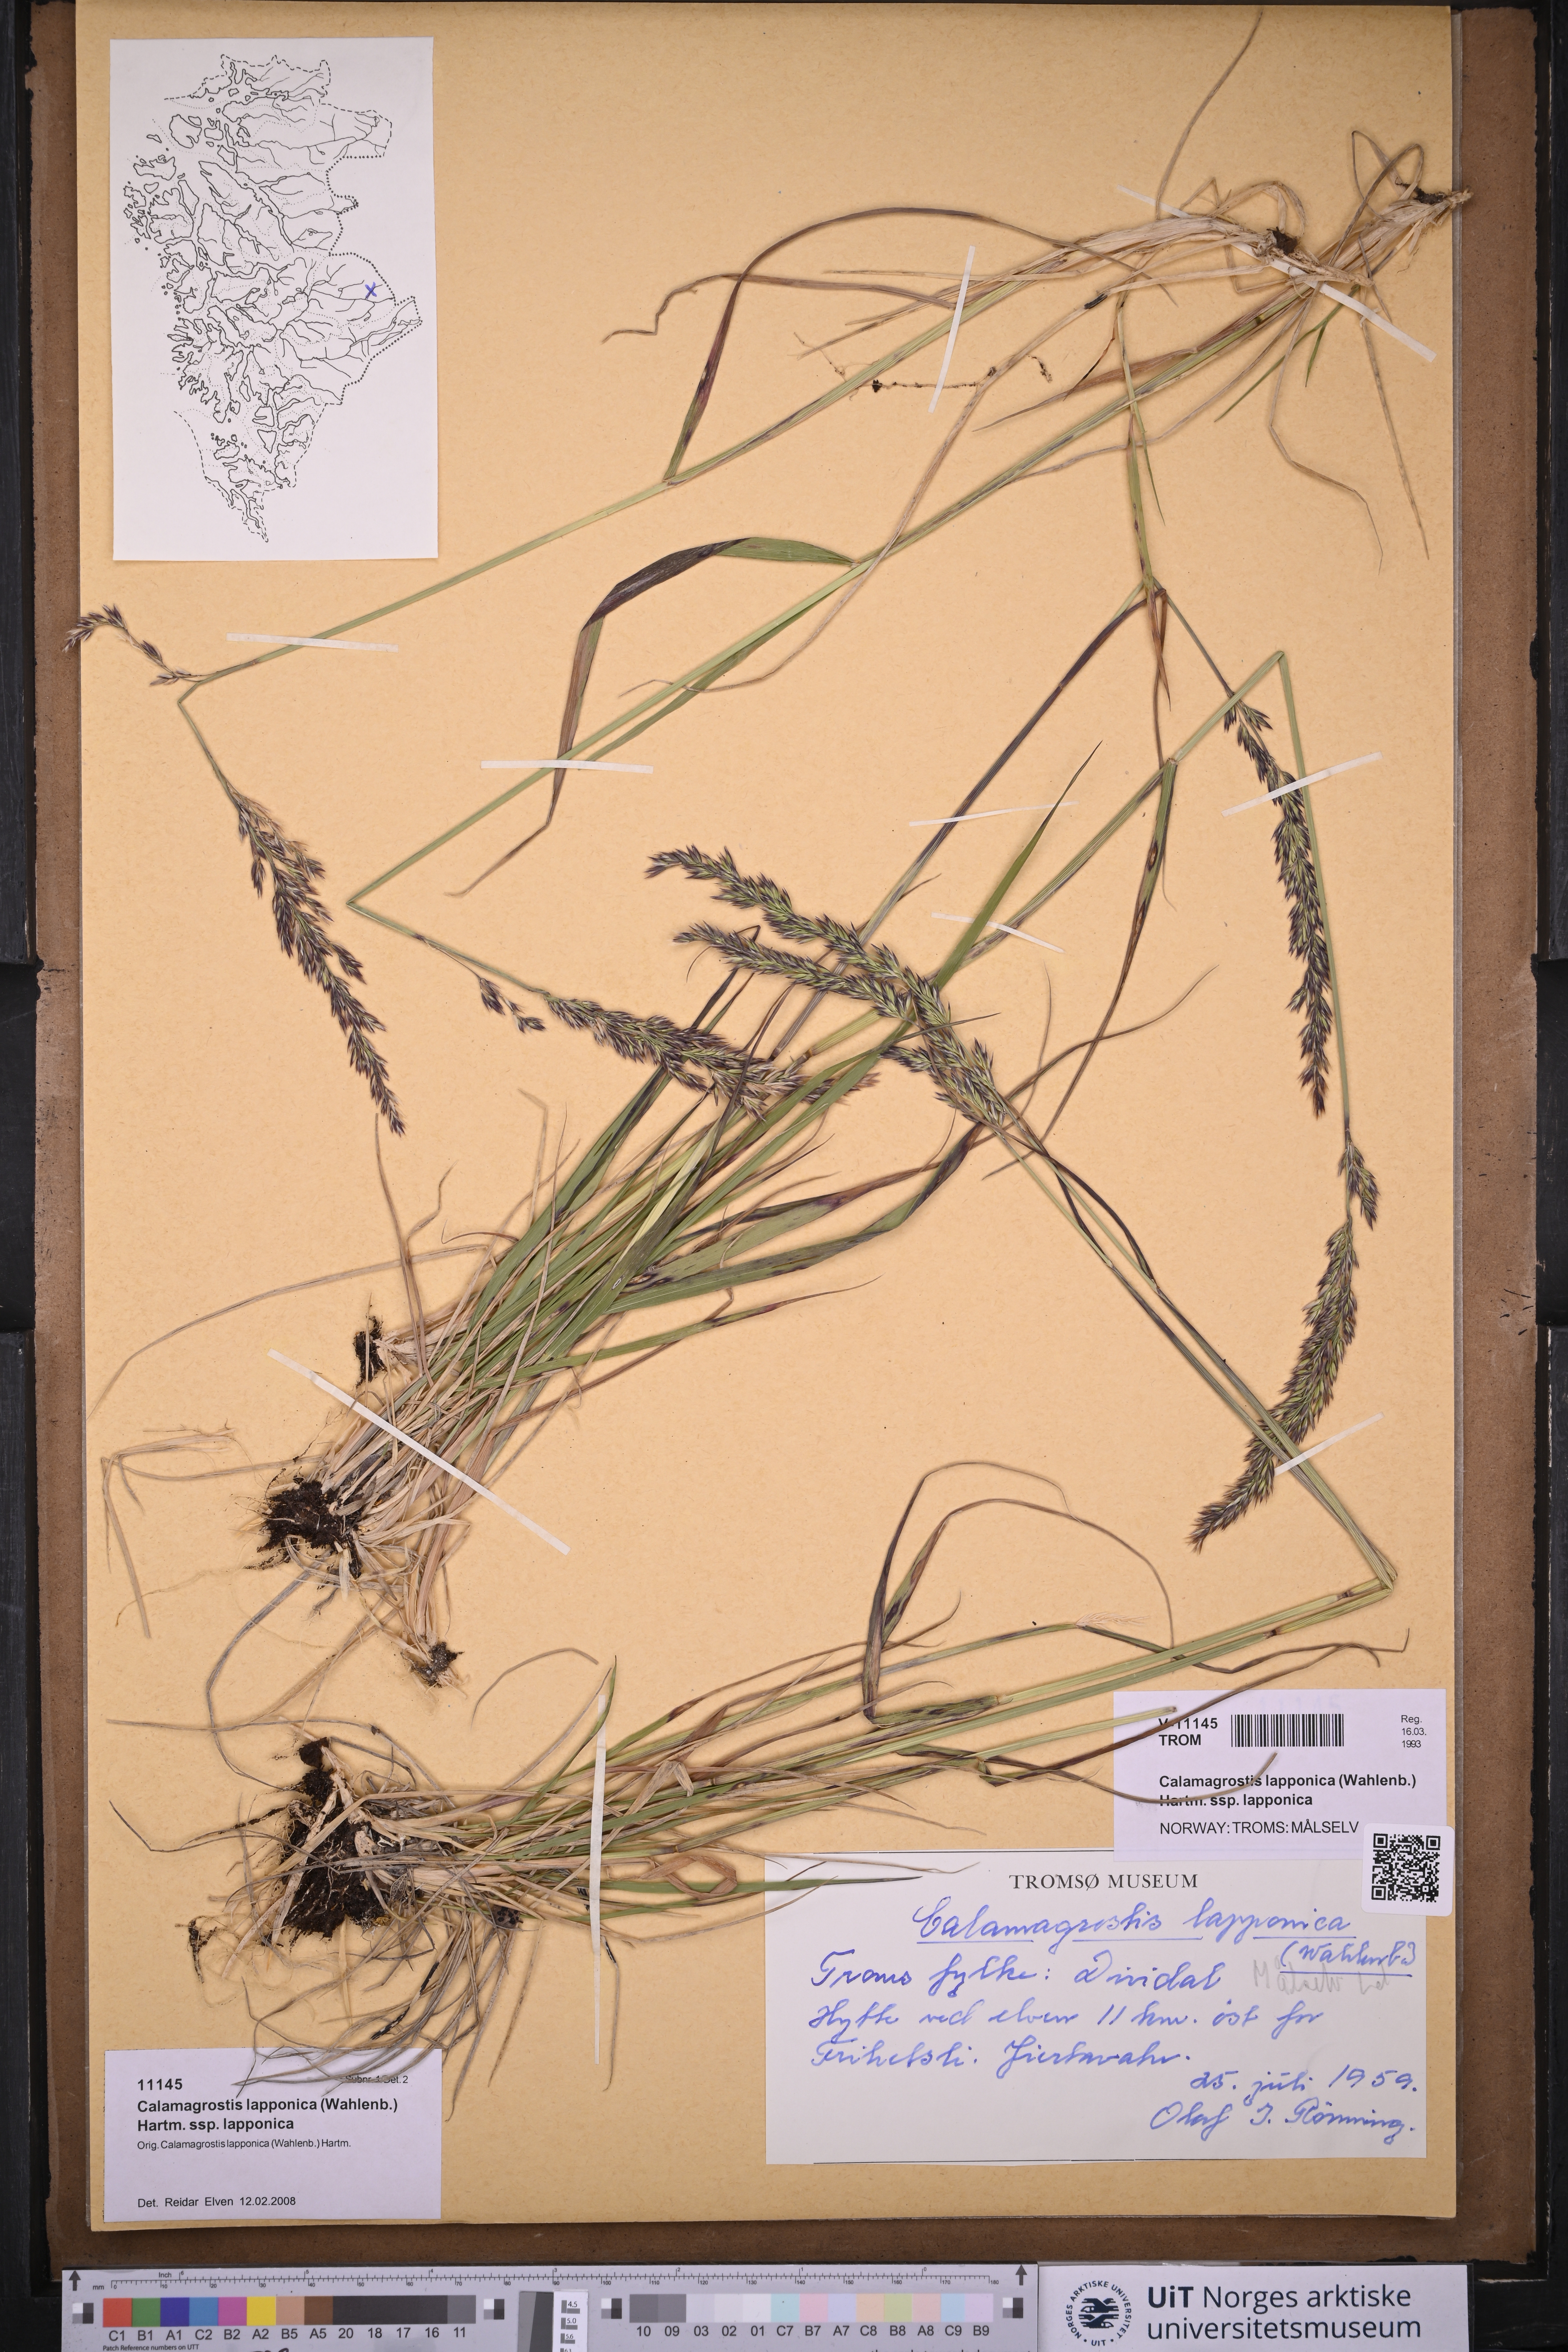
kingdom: Plantae
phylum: Tracheophyta
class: Liliopsida
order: Poales
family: Poaceae
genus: Calamagrostis
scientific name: Calamagrostis lapponica
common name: Lapland reedgrass
